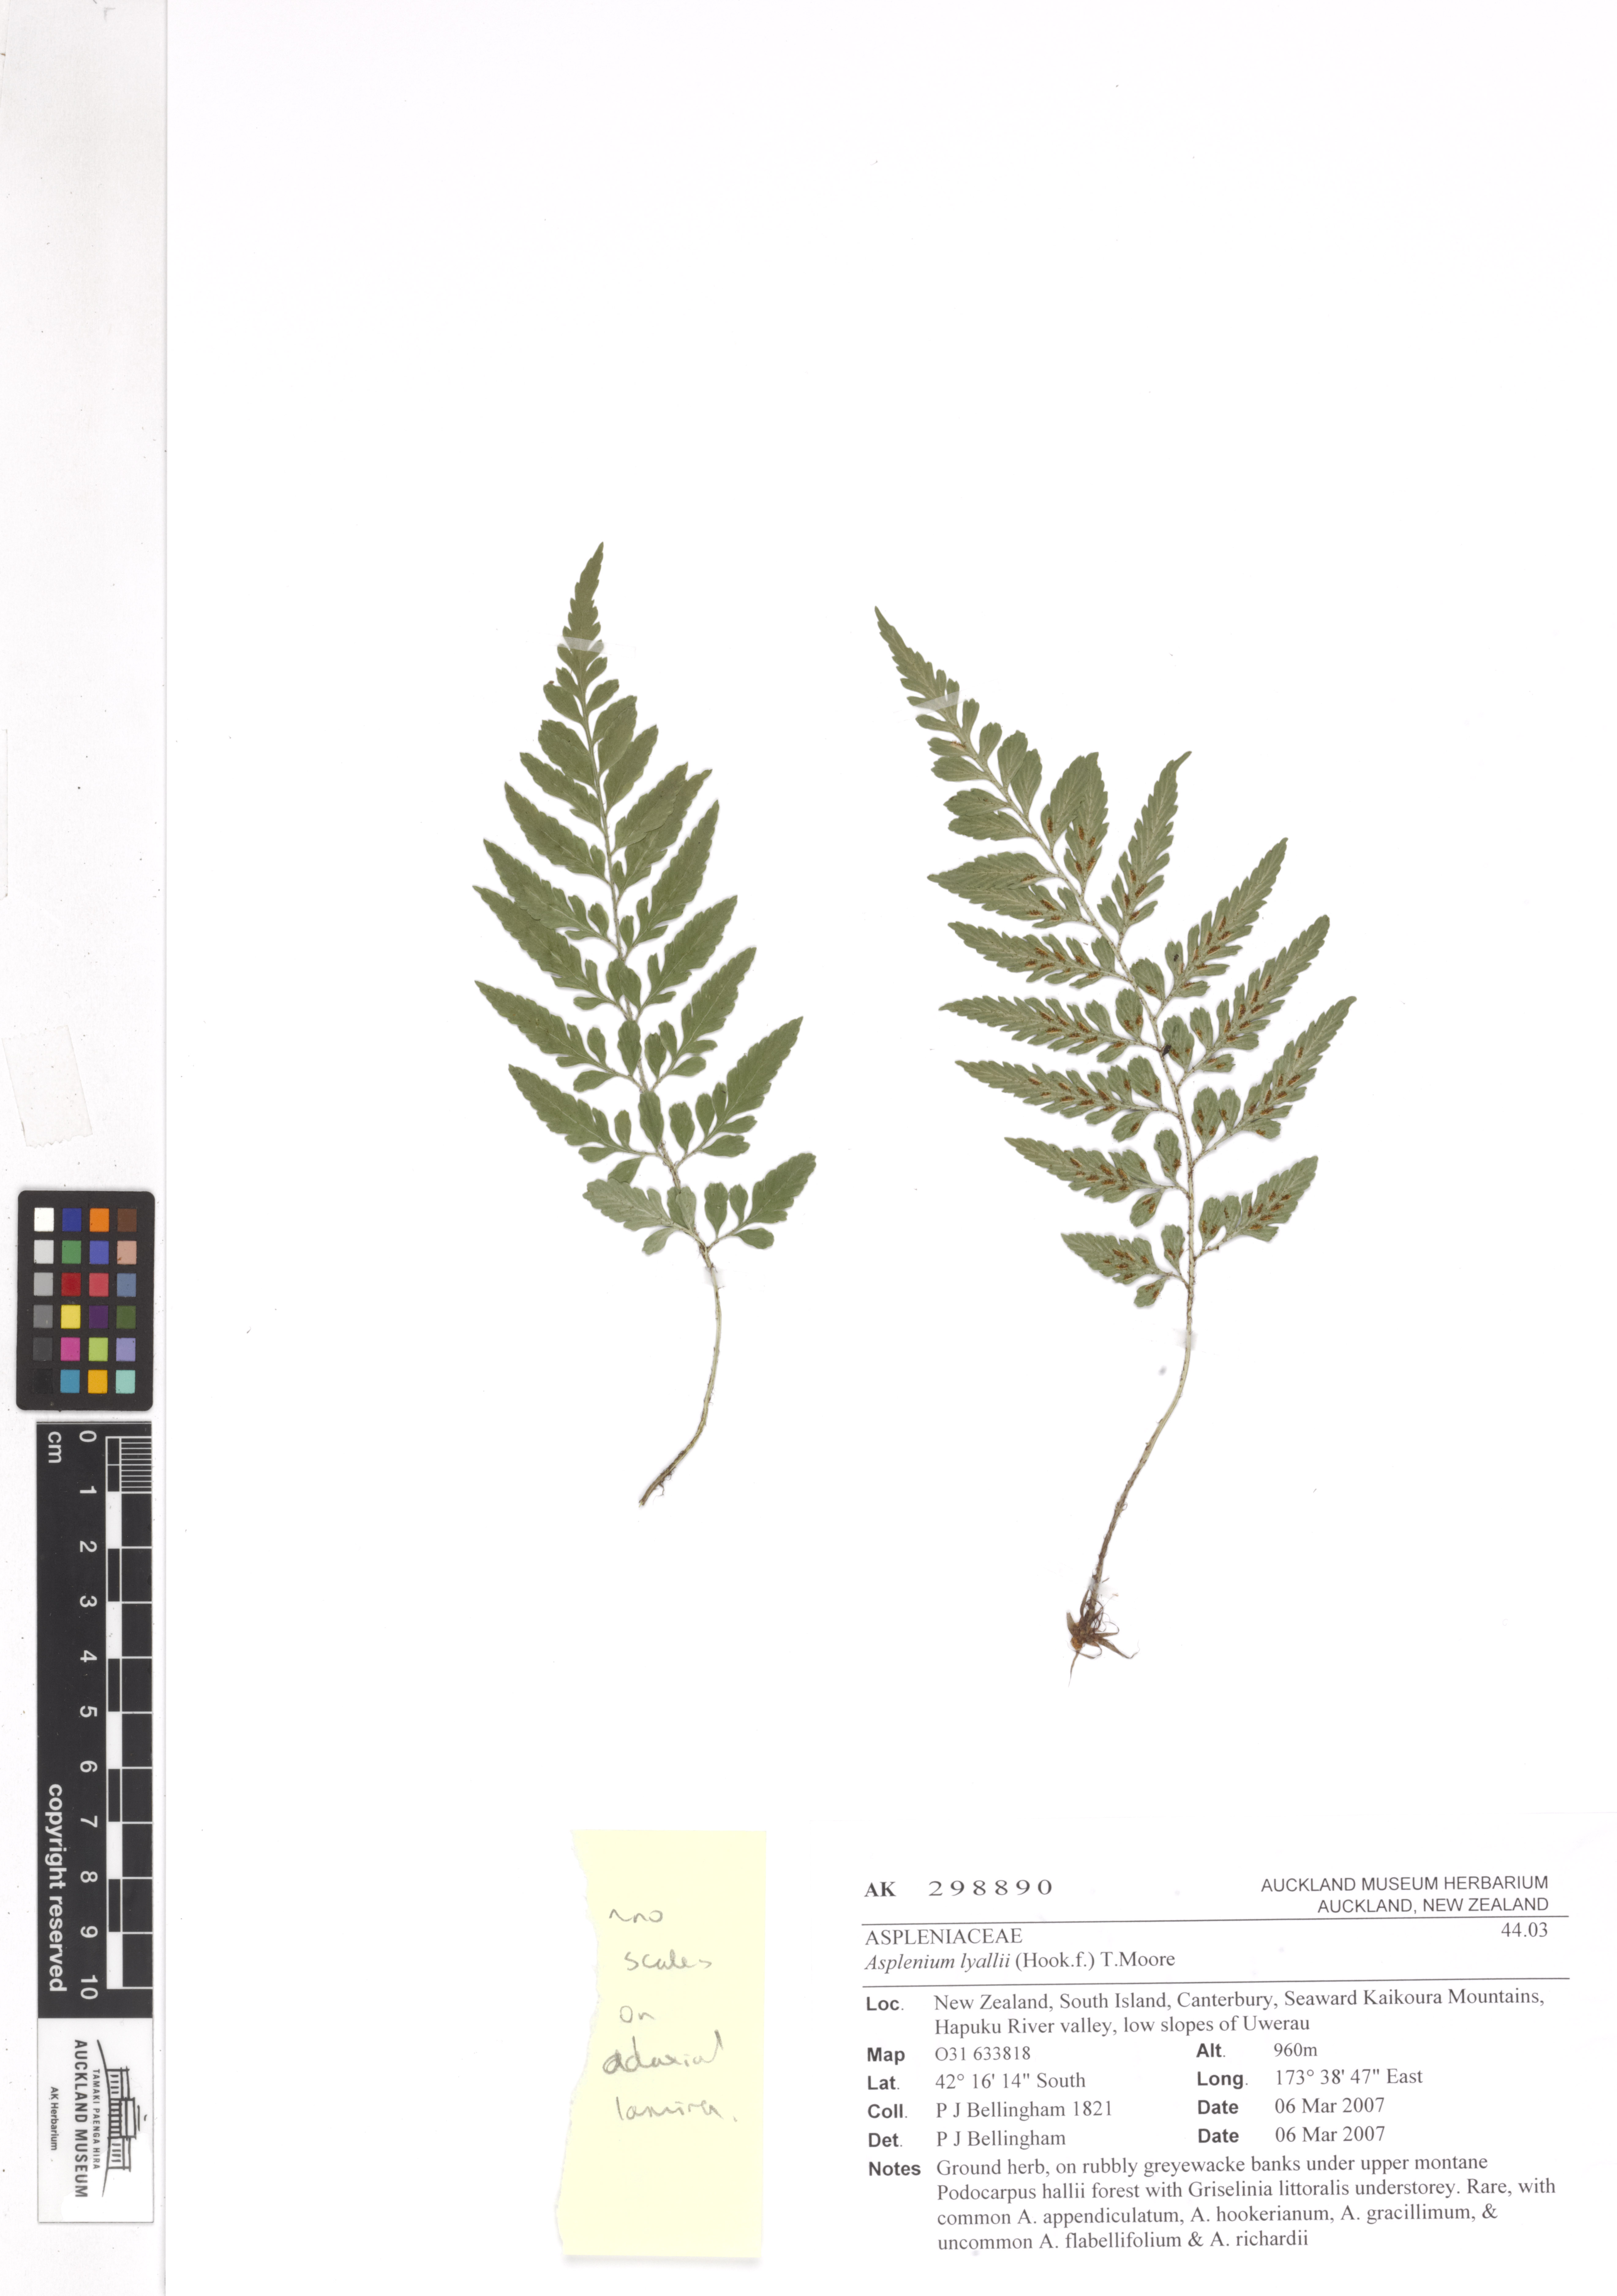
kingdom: Plantae
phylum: Tracheophyta
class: Polypodiopsida
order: Polypodiales
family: Aspleniaceae
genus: Asplenium
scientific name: Asplenium
